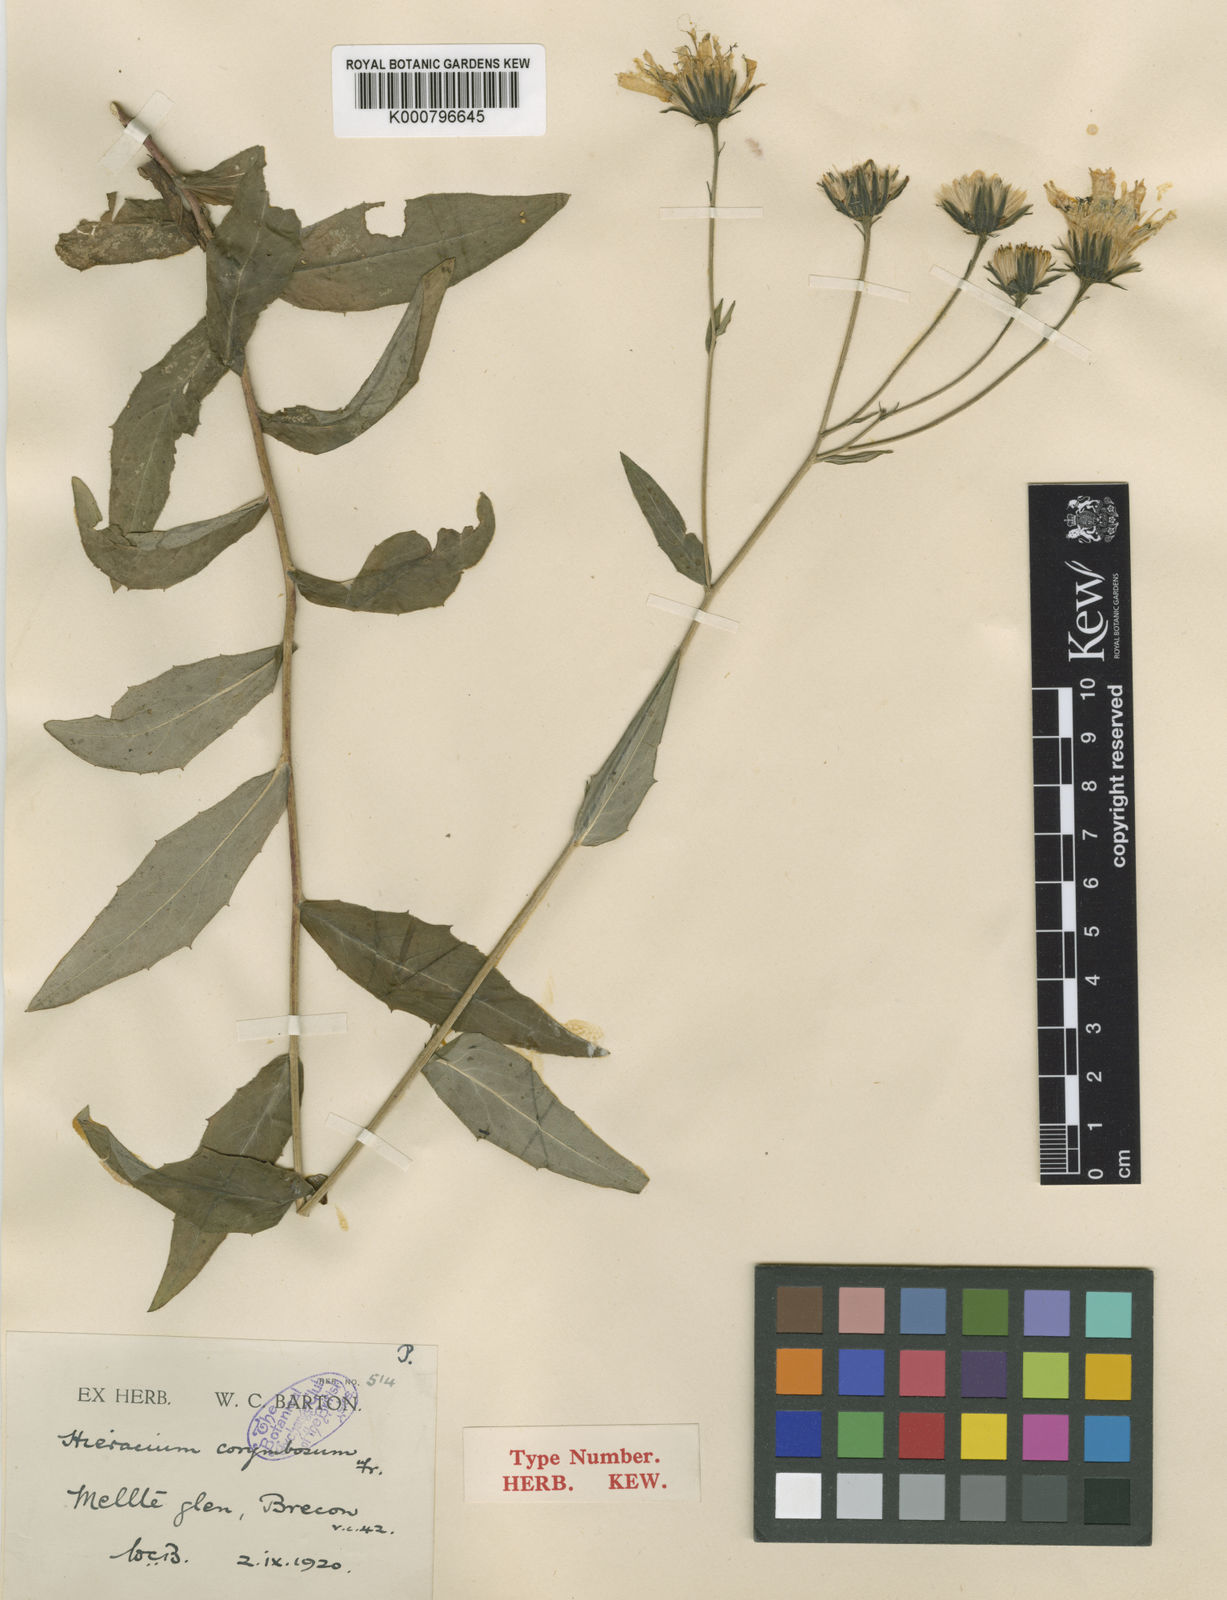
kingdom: Plantae
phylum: Tracheophyta
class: Magnoliopsida
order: Asterales
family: Asteraceae
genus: Hieracium
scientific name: Hieracium subcrocatum
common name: Dark-styled hawkweed
